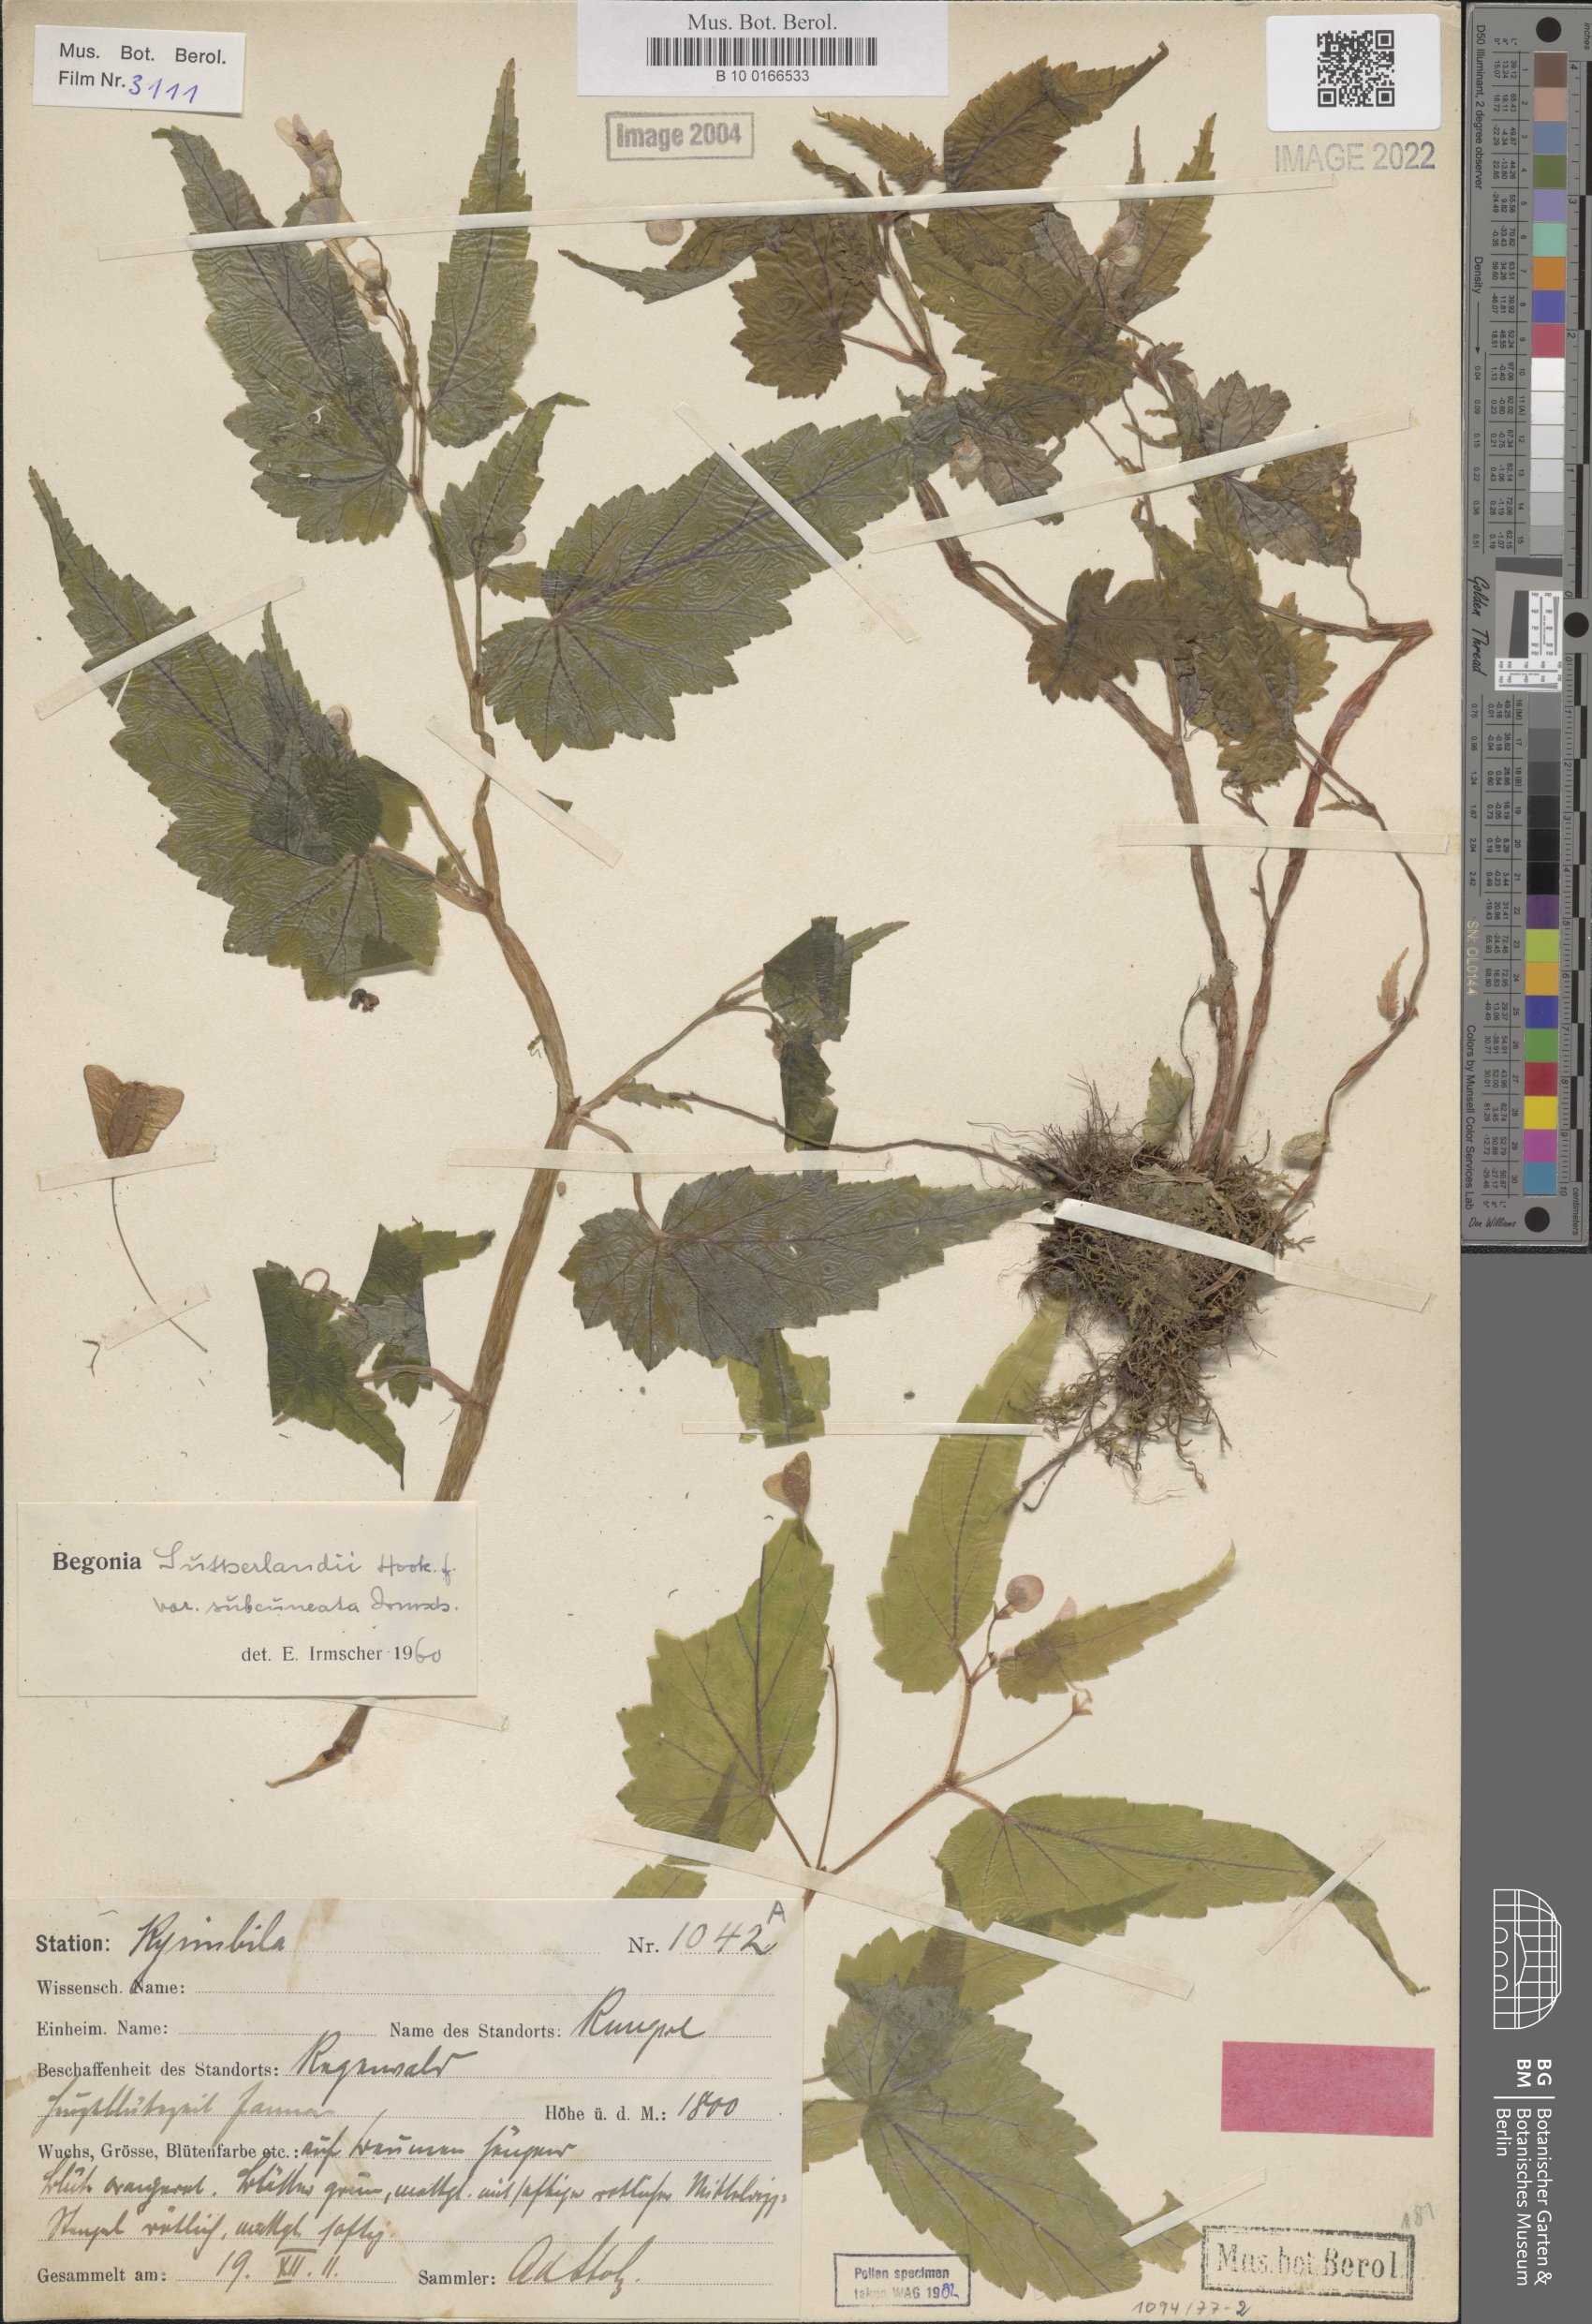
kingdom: Plantae
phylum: Tracheophyta
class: Magnoliopsida
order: Cucurbitales
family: Begoniaceae
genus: Begonia
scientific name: Begonia sutherlandii
